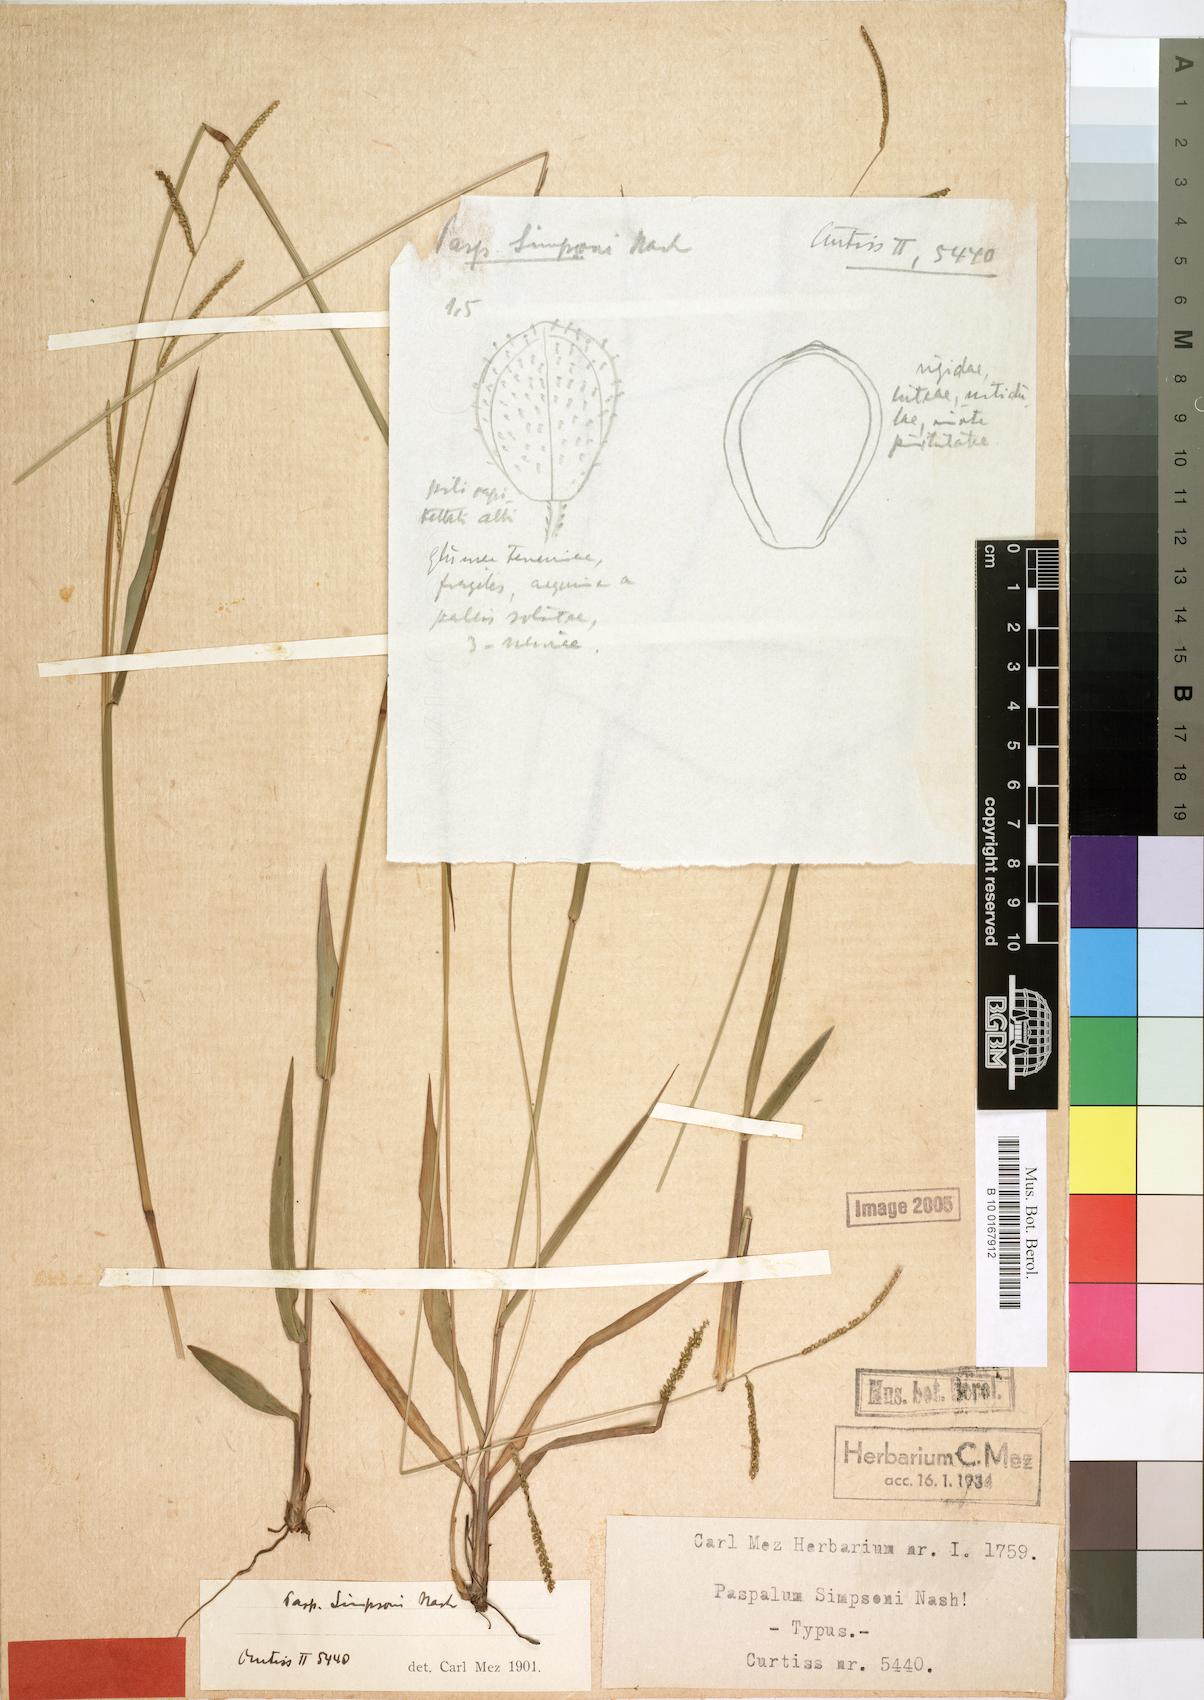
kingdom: Plantae
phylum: Tracheophyta
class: Liliopsida
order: Poales
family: Poaceae
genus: Paspalum
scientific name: Paspalum blodgettii
